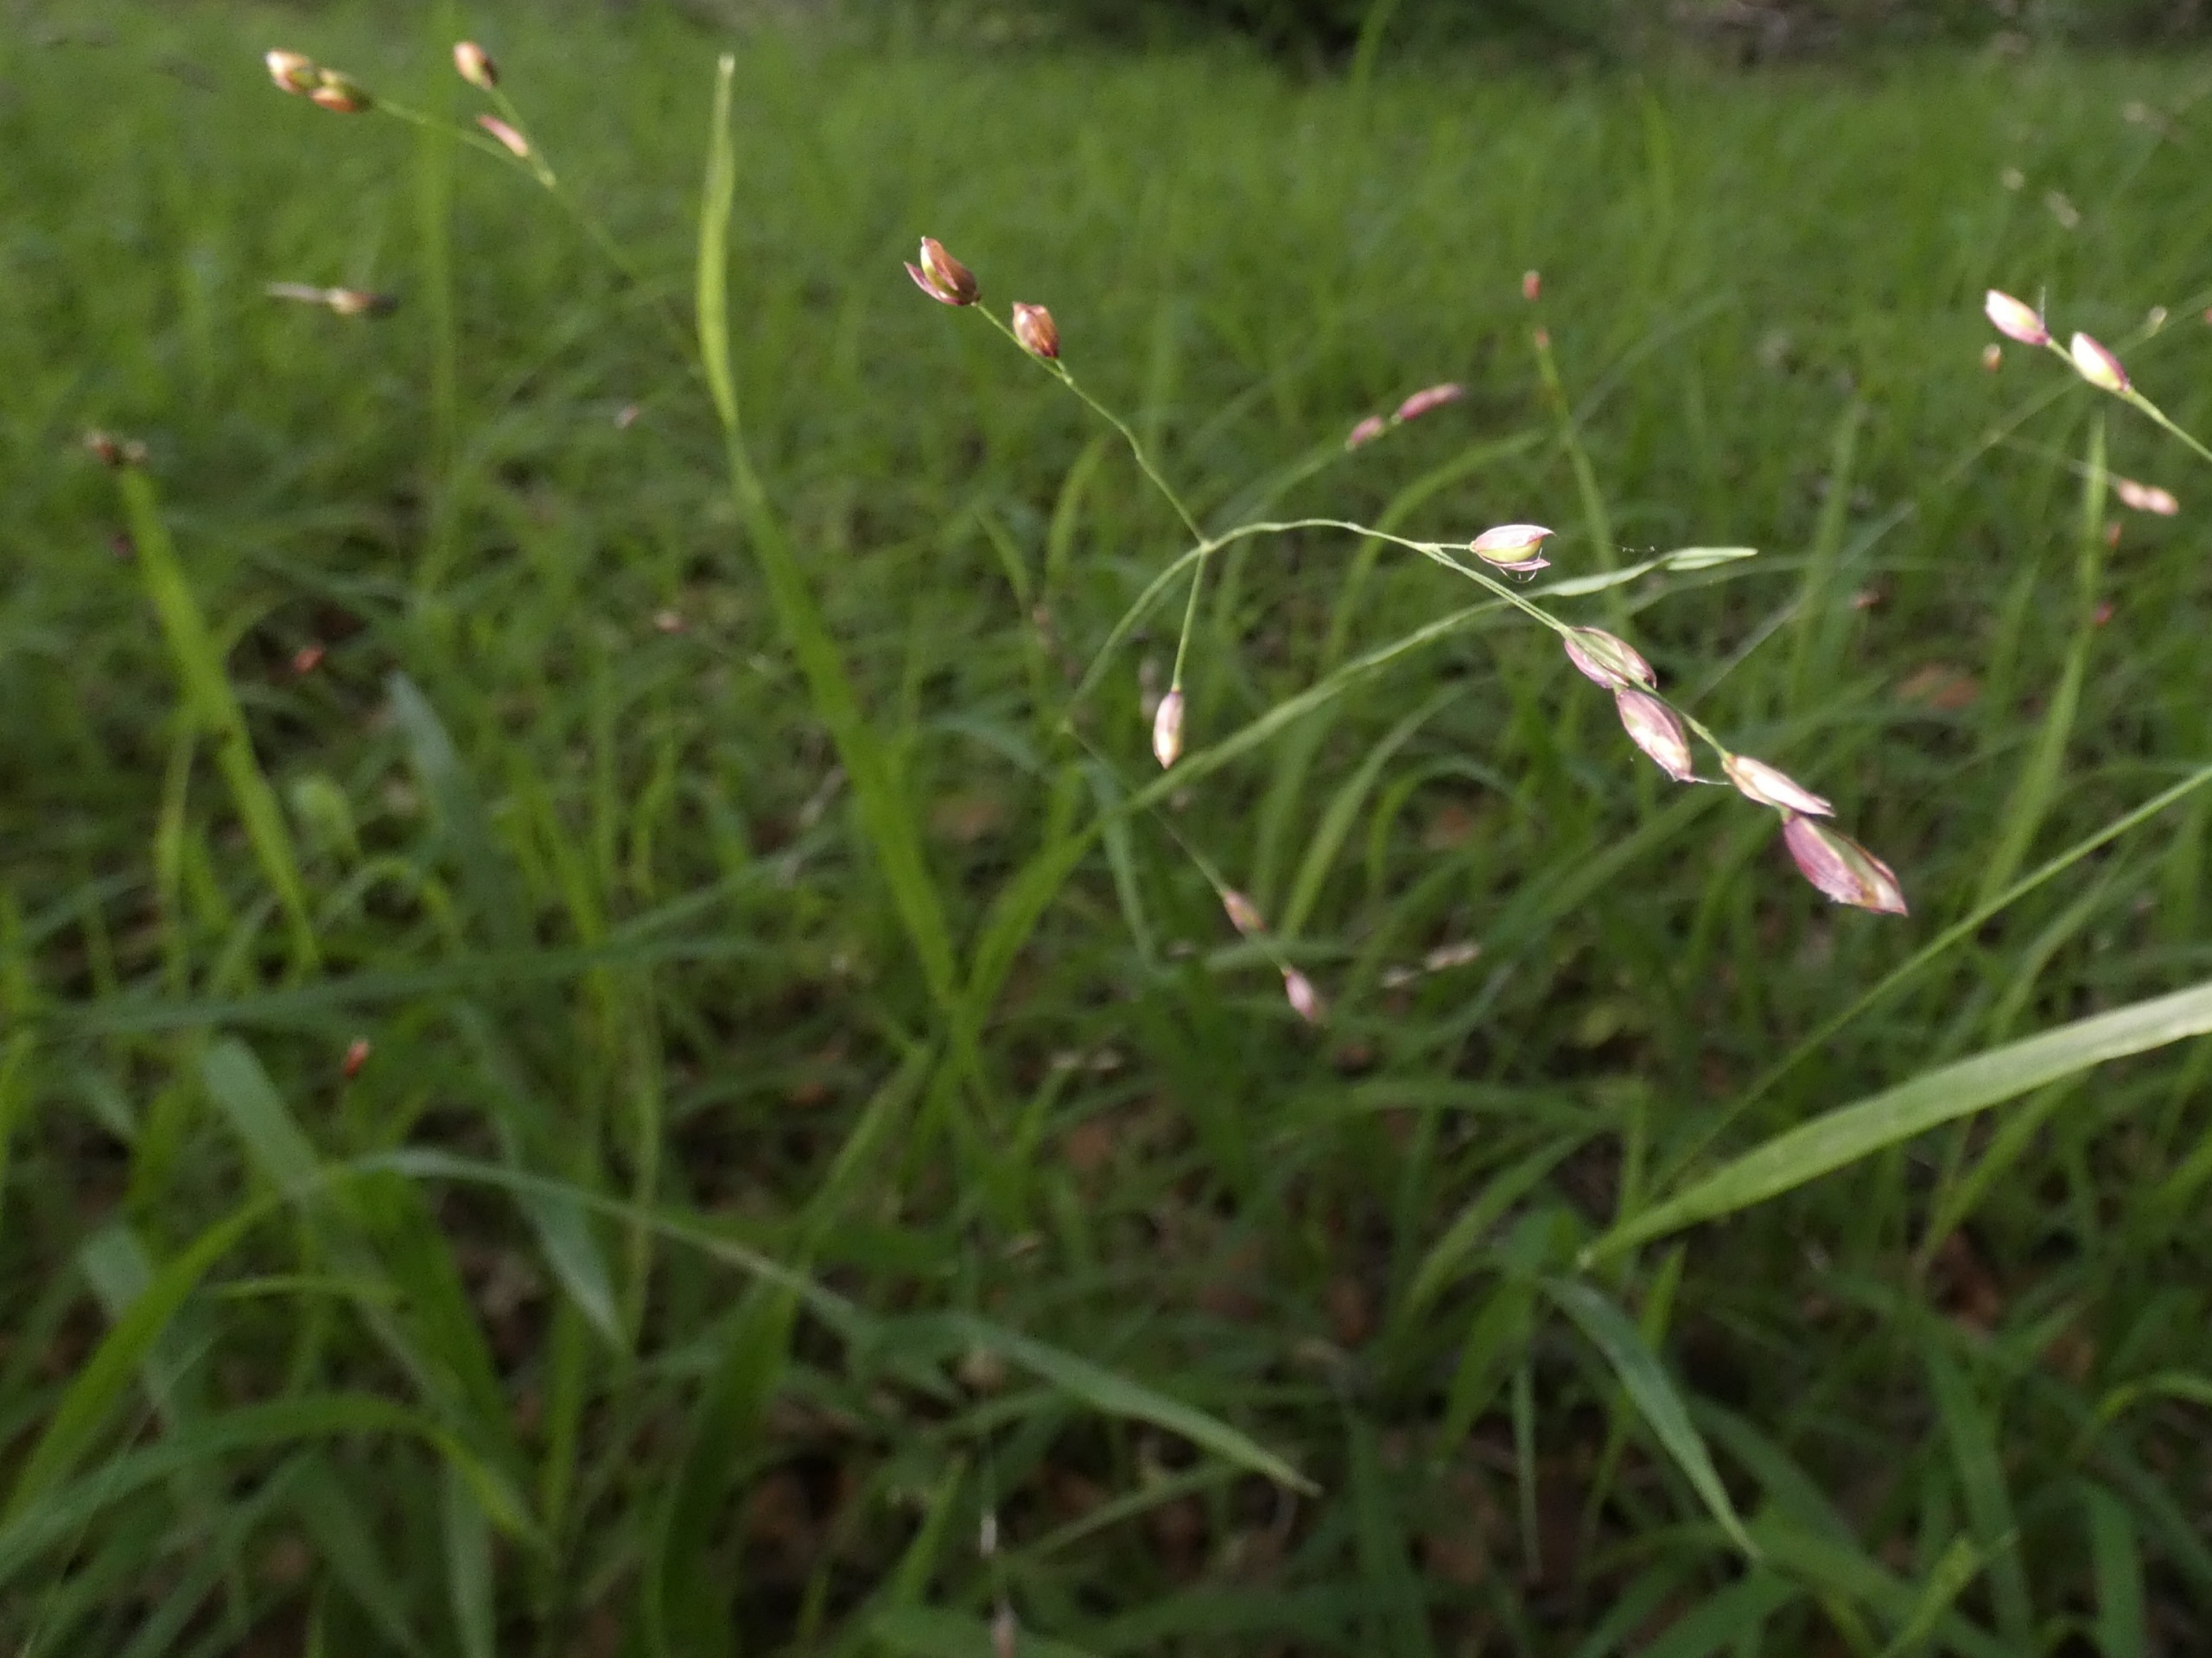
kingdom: Plantae
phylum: Tracheophyta
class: Liliopsida
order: Poales
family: Poaceae
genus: Melica
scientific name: Melica uniflora
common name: Enblomstret flitteraks
